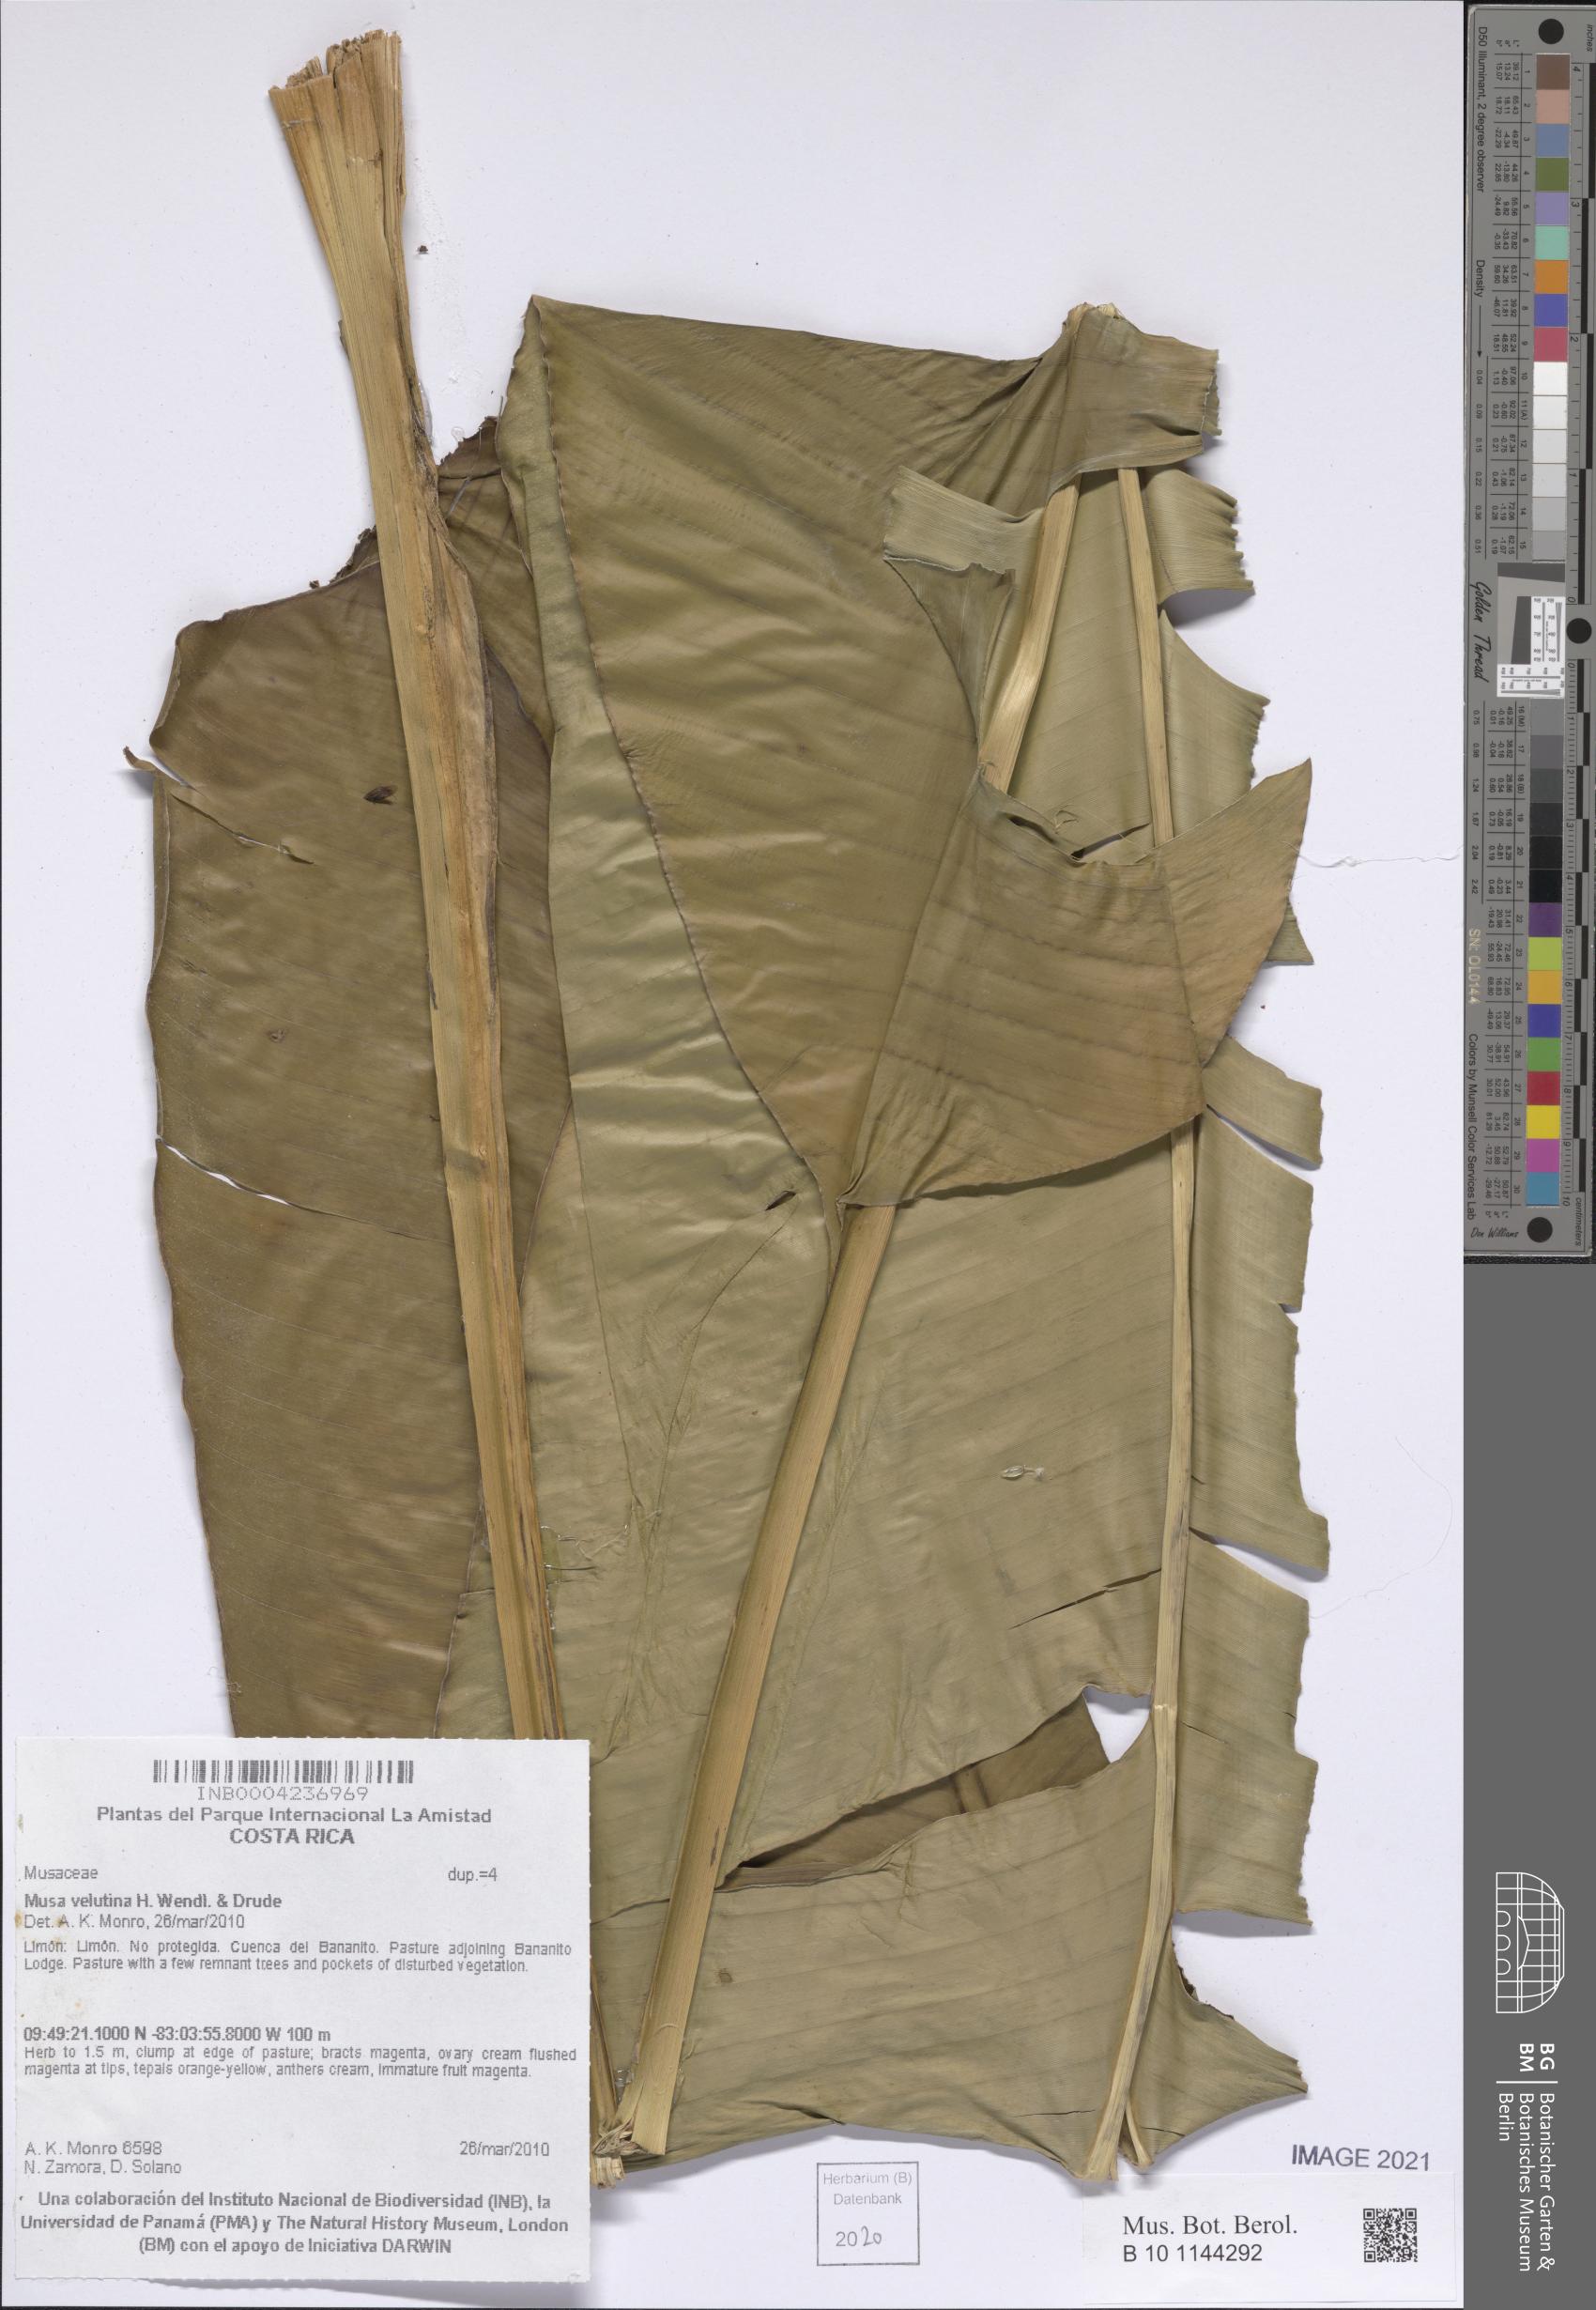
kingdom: Plantae
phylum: Tracheophyta
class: Liliopsida
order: Zingiberales
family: Musaceae
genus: Musa
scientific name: Musa velutina
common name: Pink velvet banana
